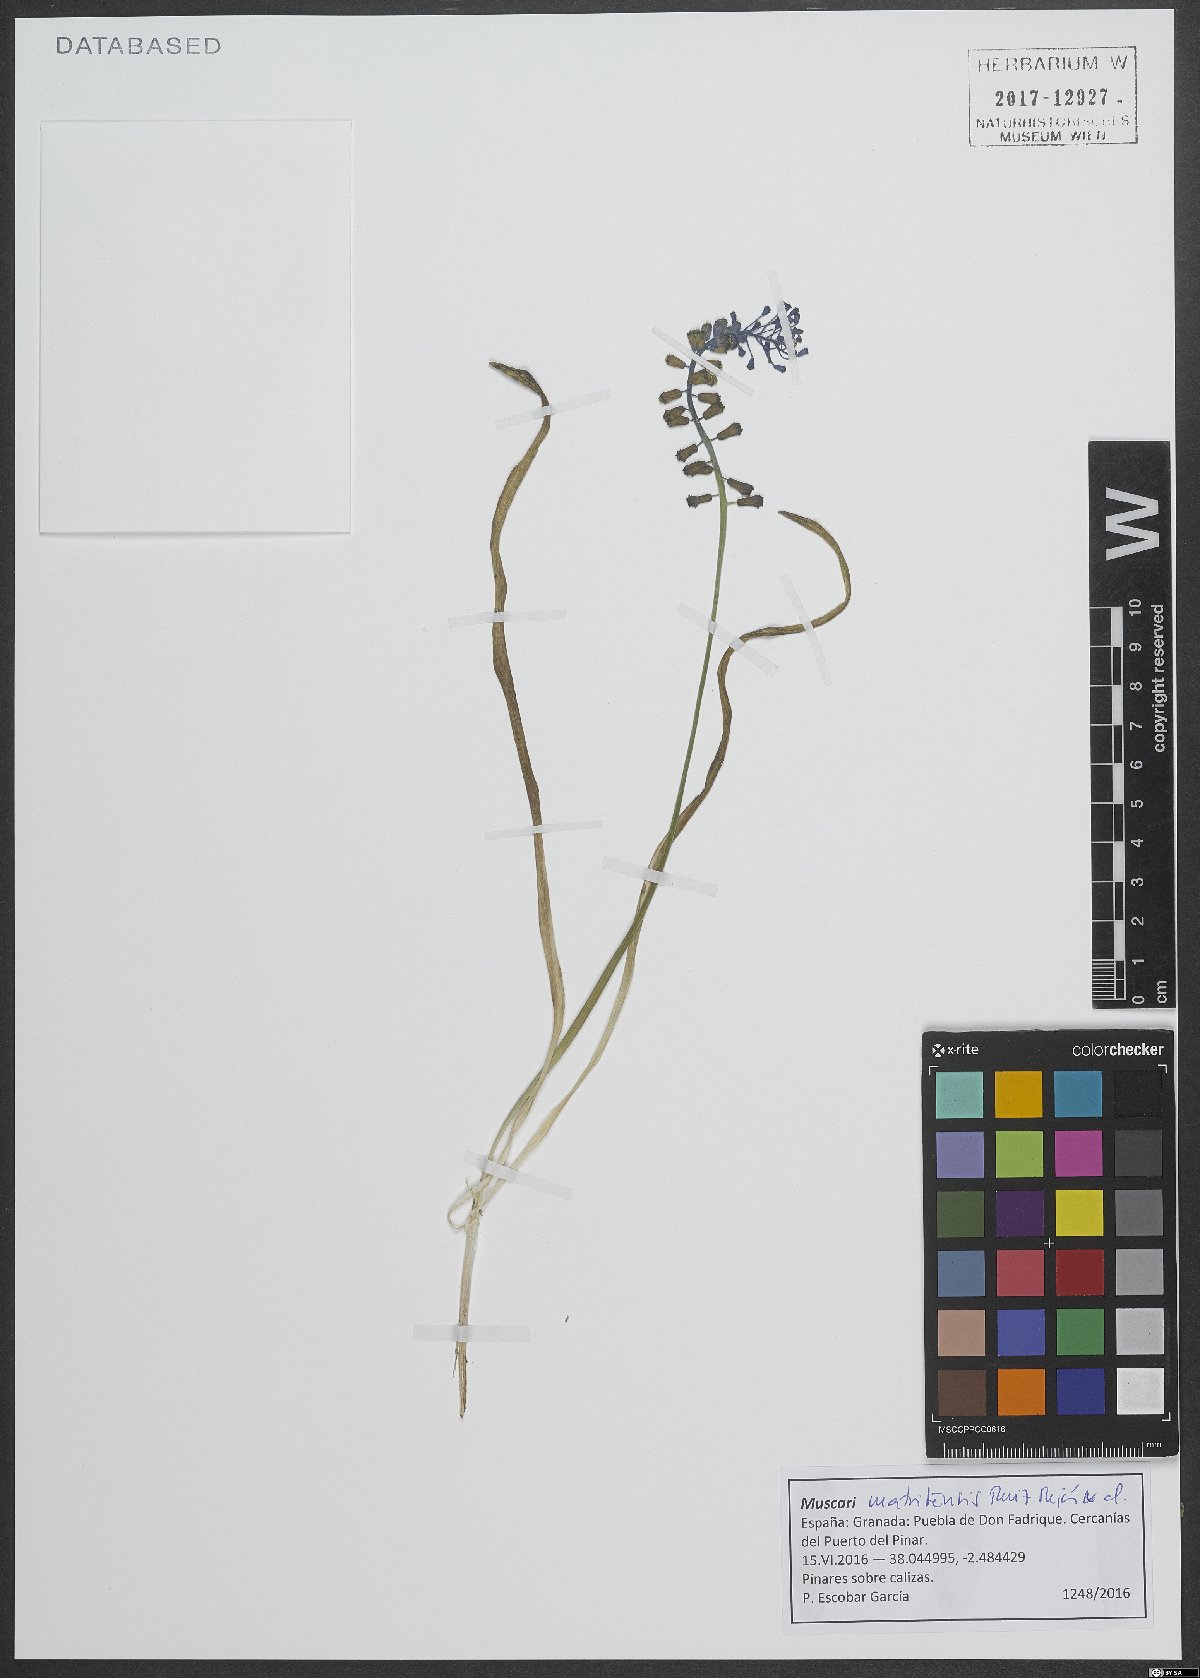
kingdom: Plantae
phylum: Tracheophyta
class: Liliopsida
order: Asparagales
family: Asparagaceae
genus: Muscari
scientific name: Muscari matritense
